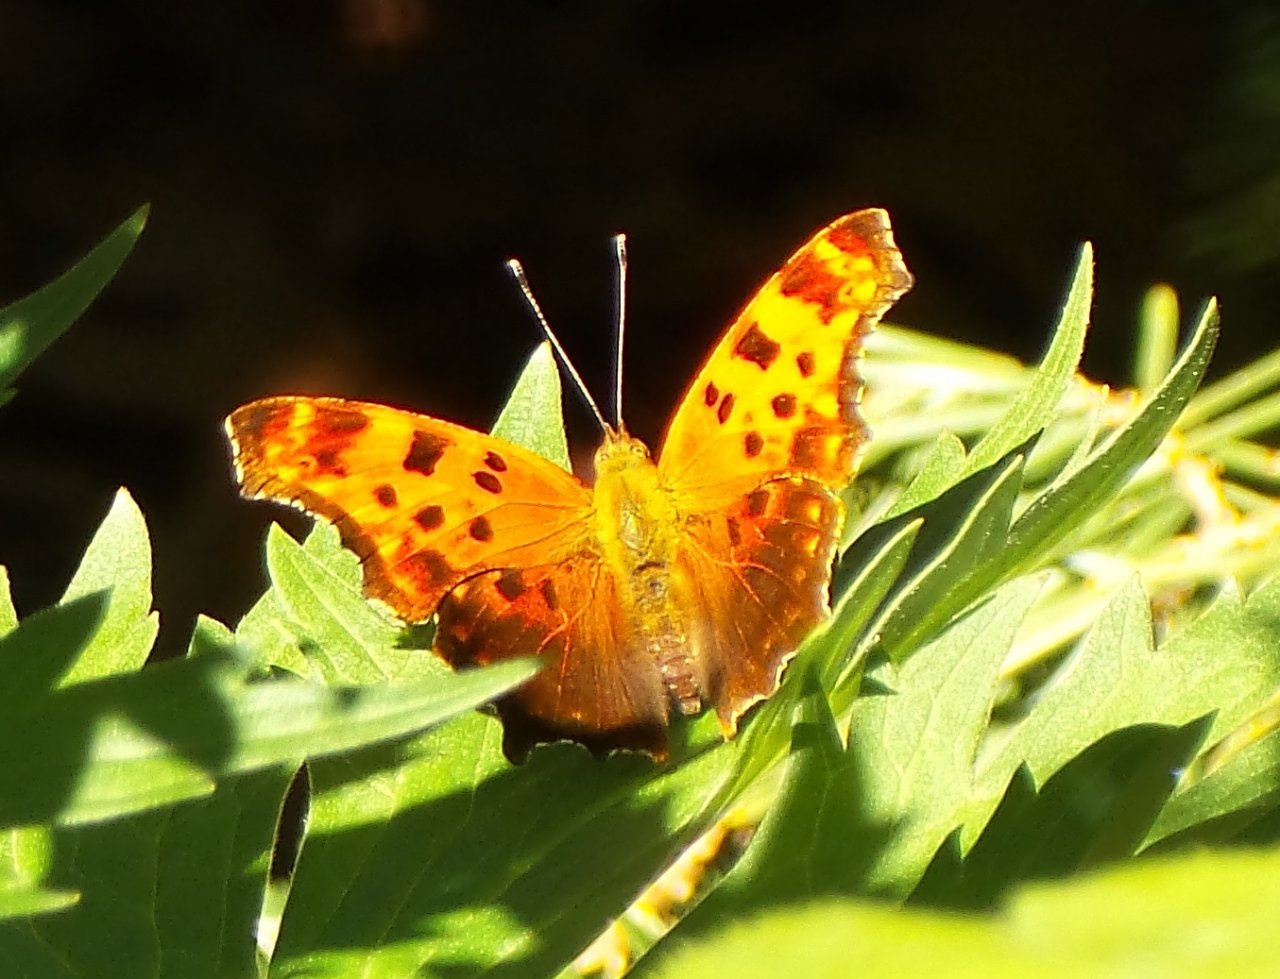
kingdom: Animalia
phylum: Arthropoda
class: Insecta
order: Lepidoptera
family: Nymphalidae
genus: Polygonia
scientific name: Polygonia comma
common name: Eastern Comma
